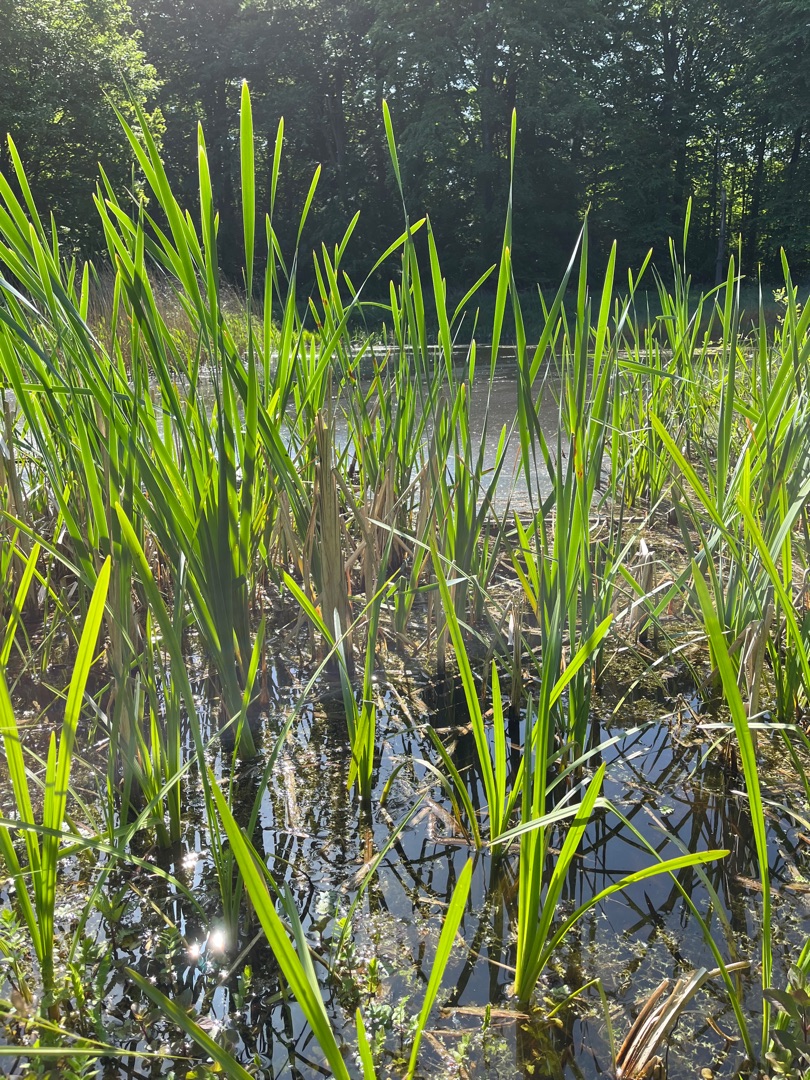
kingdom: Plantae
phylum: Tracheophyta
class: Liliopsida
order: Poales
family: Typhaceae
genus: Typha
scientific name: Typha angustifolia
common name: Smalbladet dunhammer
